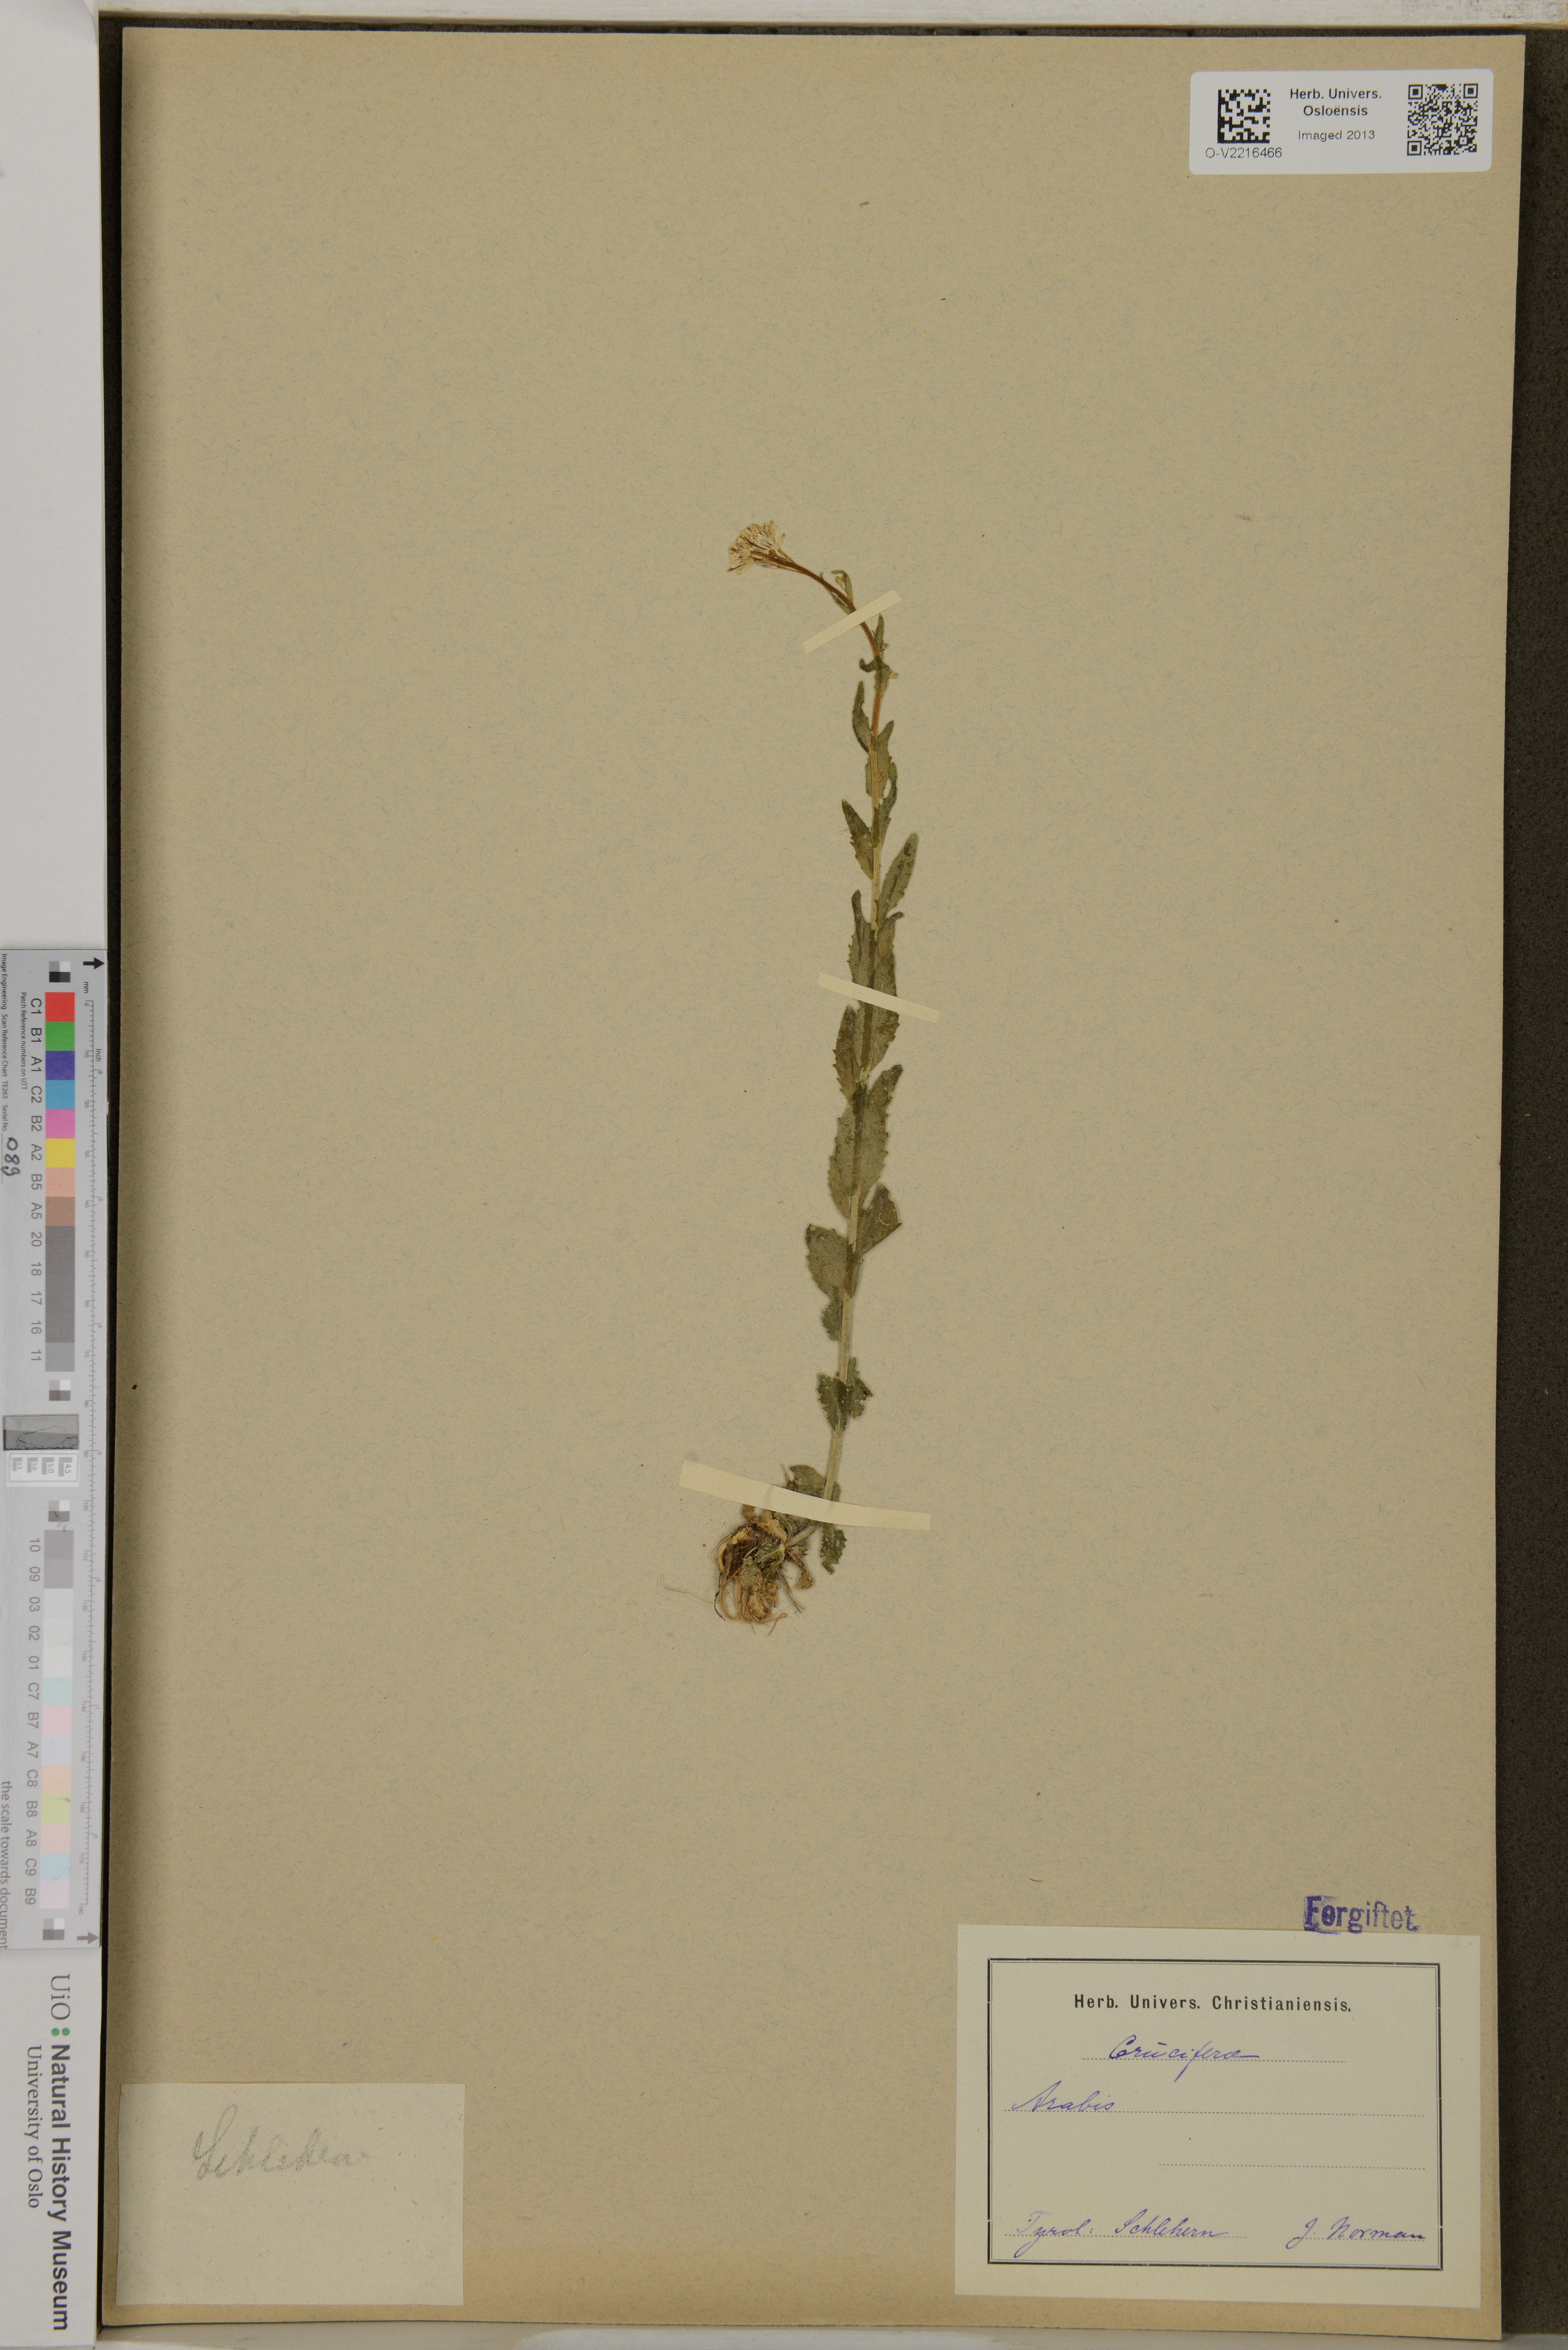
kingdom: Plantae
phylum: Tracheophyta
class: Magnoliopsida
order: Brassicales
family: Brassicaceae
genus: Arabis
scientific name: Arabis
